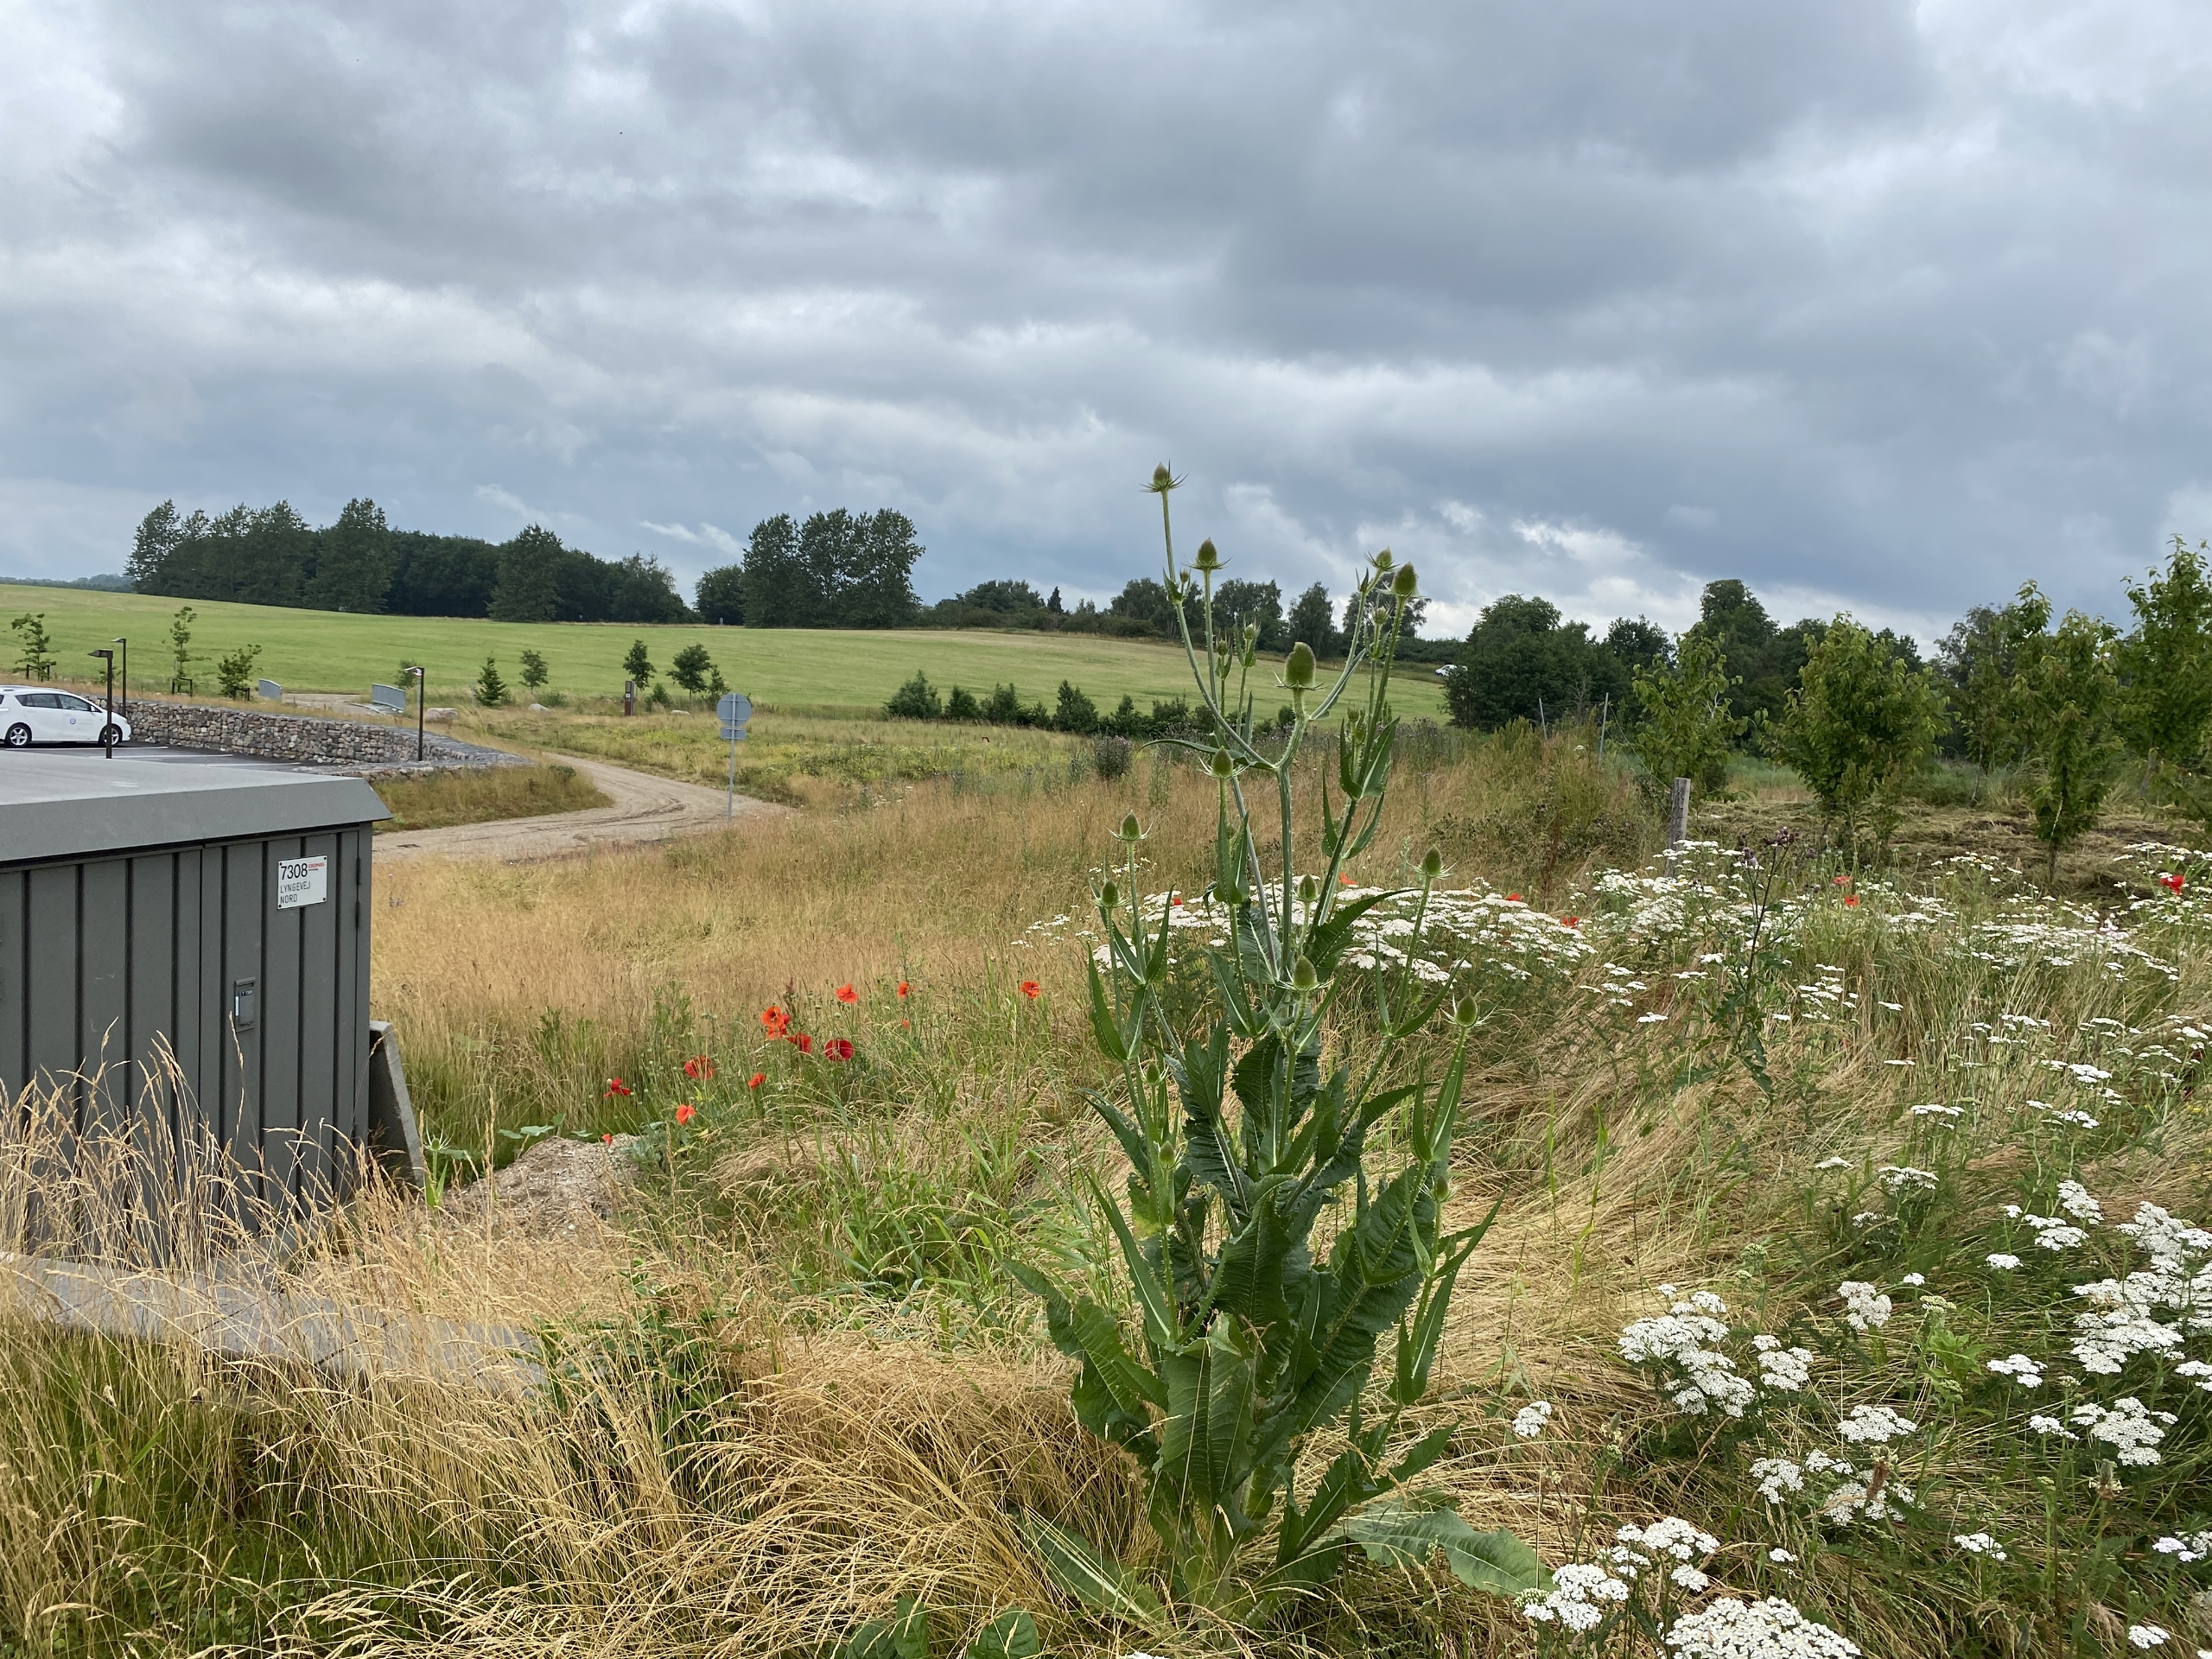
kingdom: Plantae
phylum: Tracheophyta
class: Magnoliopsida
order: Dipsacales
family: Caprifoliaceae
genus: Dipsacus
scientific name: Dipsacus fullonum
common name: Gærde-kartebolle
